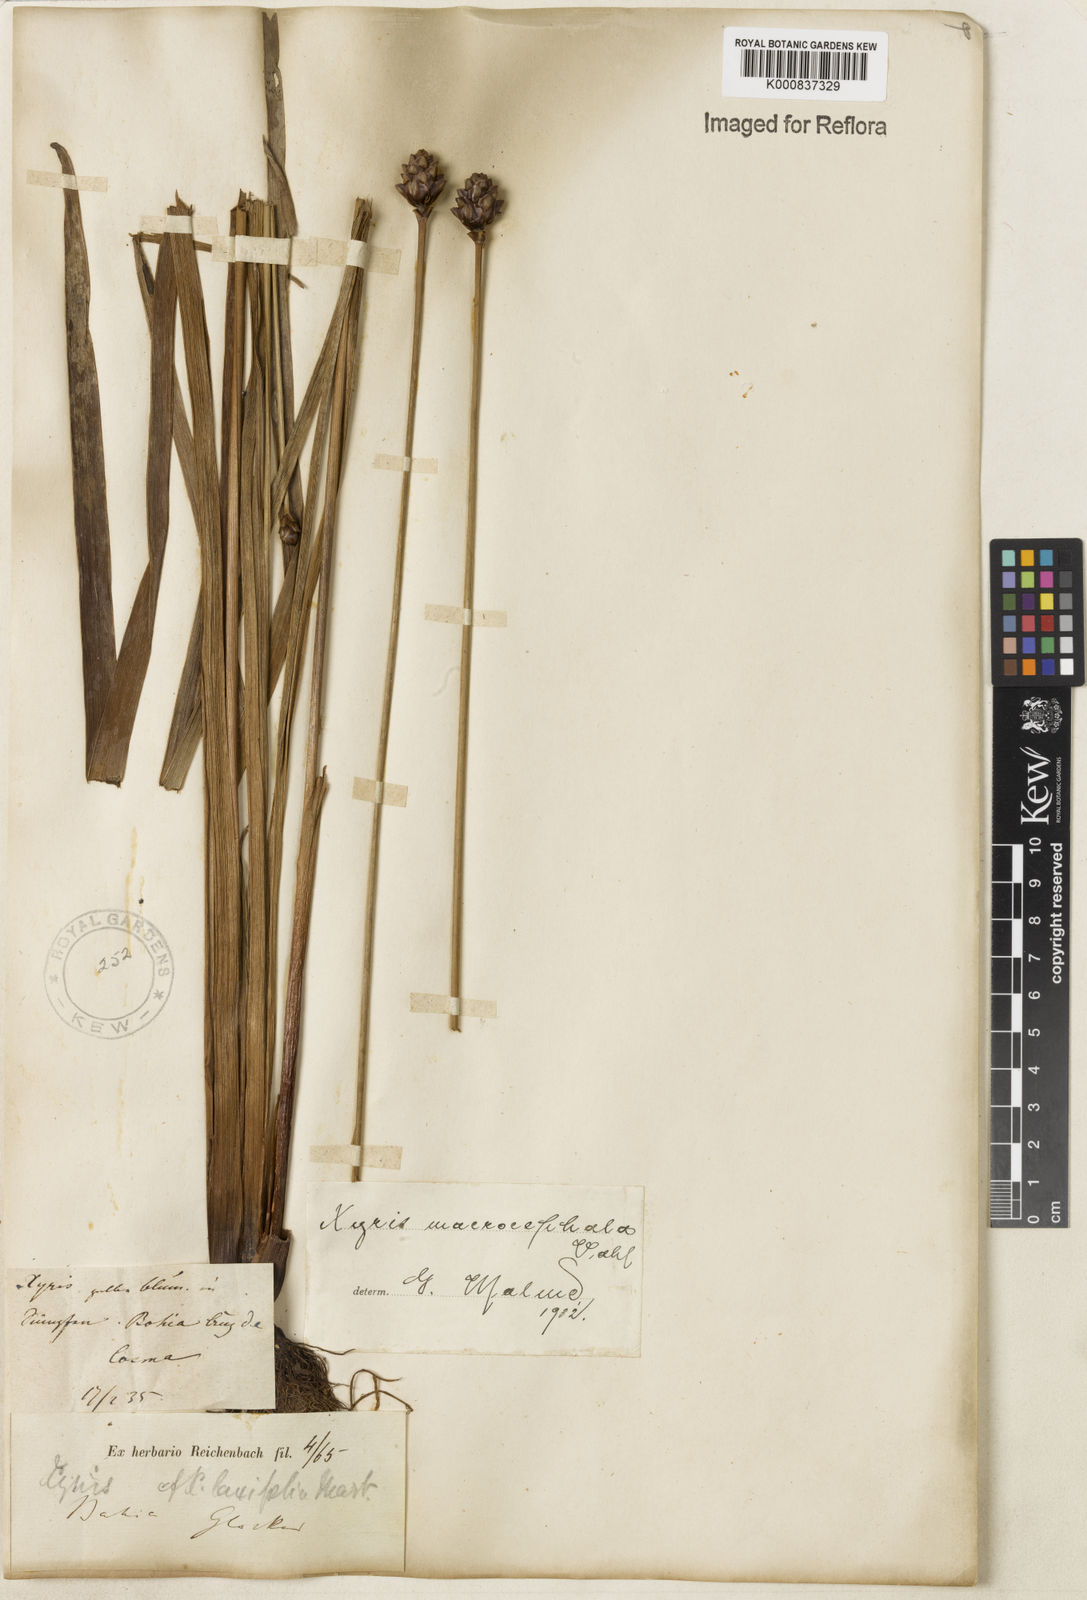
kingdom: Plantae
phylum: Tracheophyta
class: Liliopsida
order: Poales
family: Xyridaceae
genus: Xyris
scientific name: Xyris jupicai
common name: Richard's yelloweyed grass
